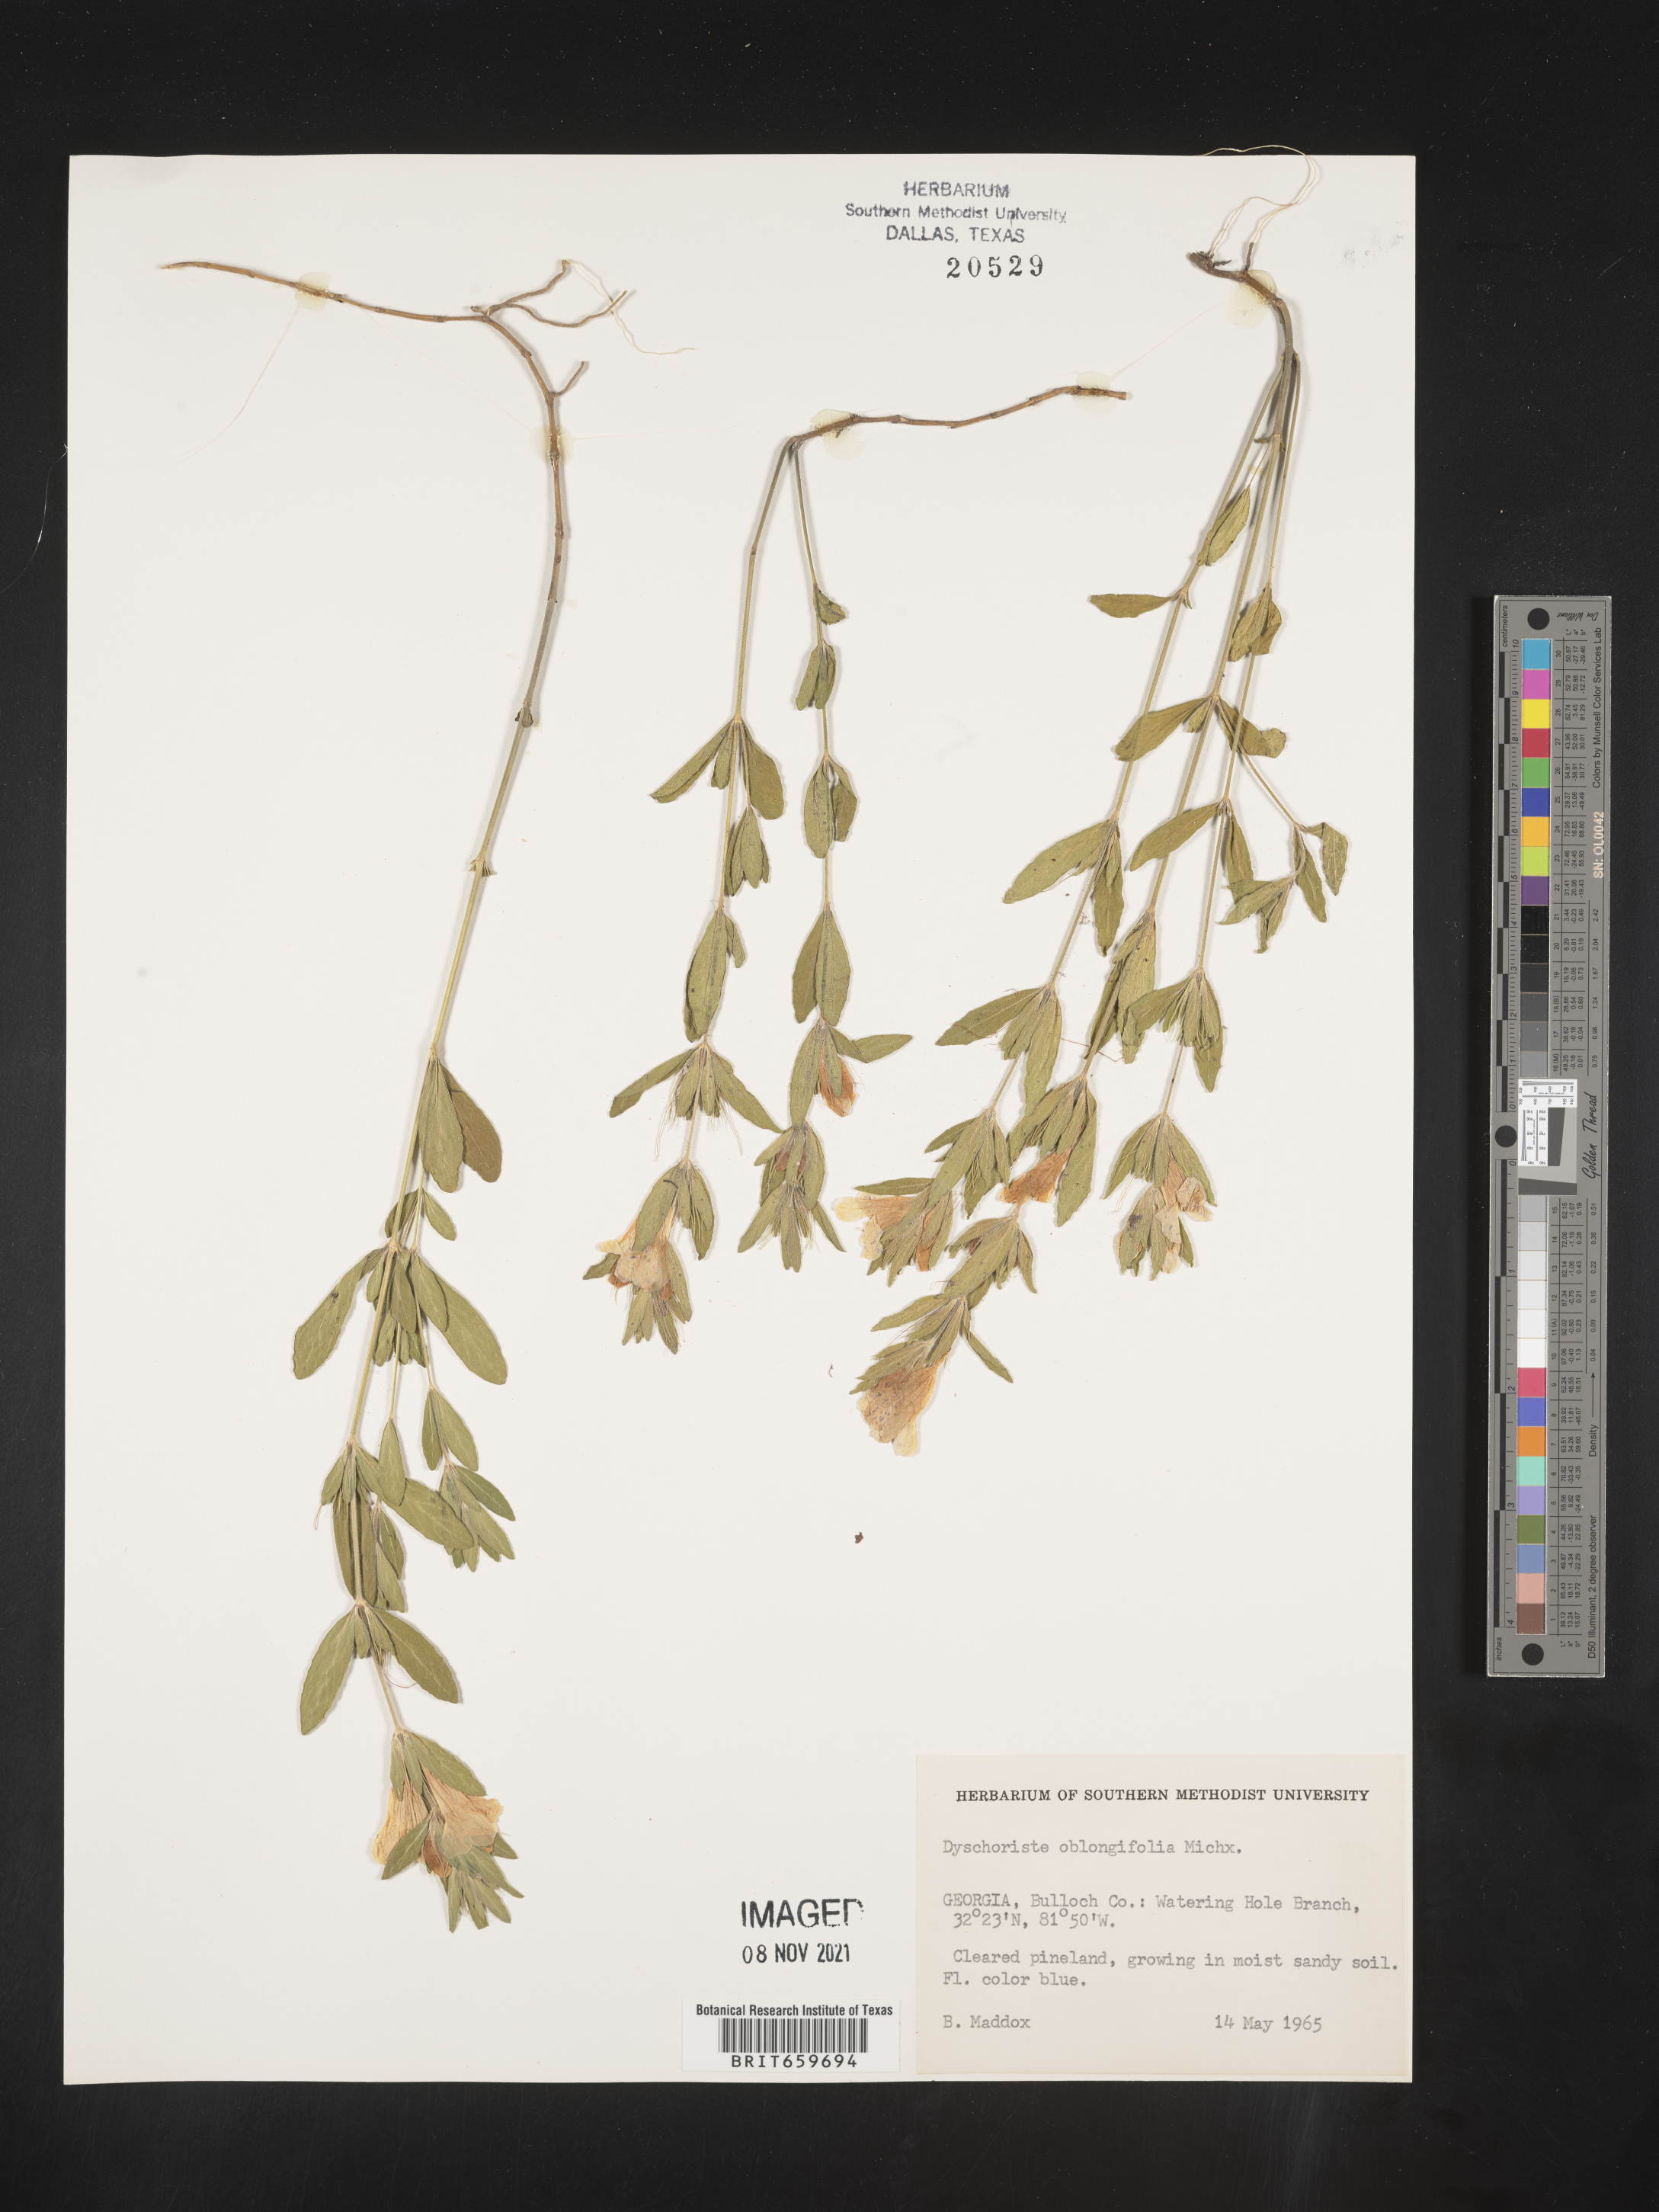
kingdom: Plantae
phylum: Tracheophyta
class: Magnoliopsida
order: Lamiales
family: Acanthaceae
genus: Dyschoriste
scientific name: Dyschoriste oblongifolia
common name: Blue twinflower
